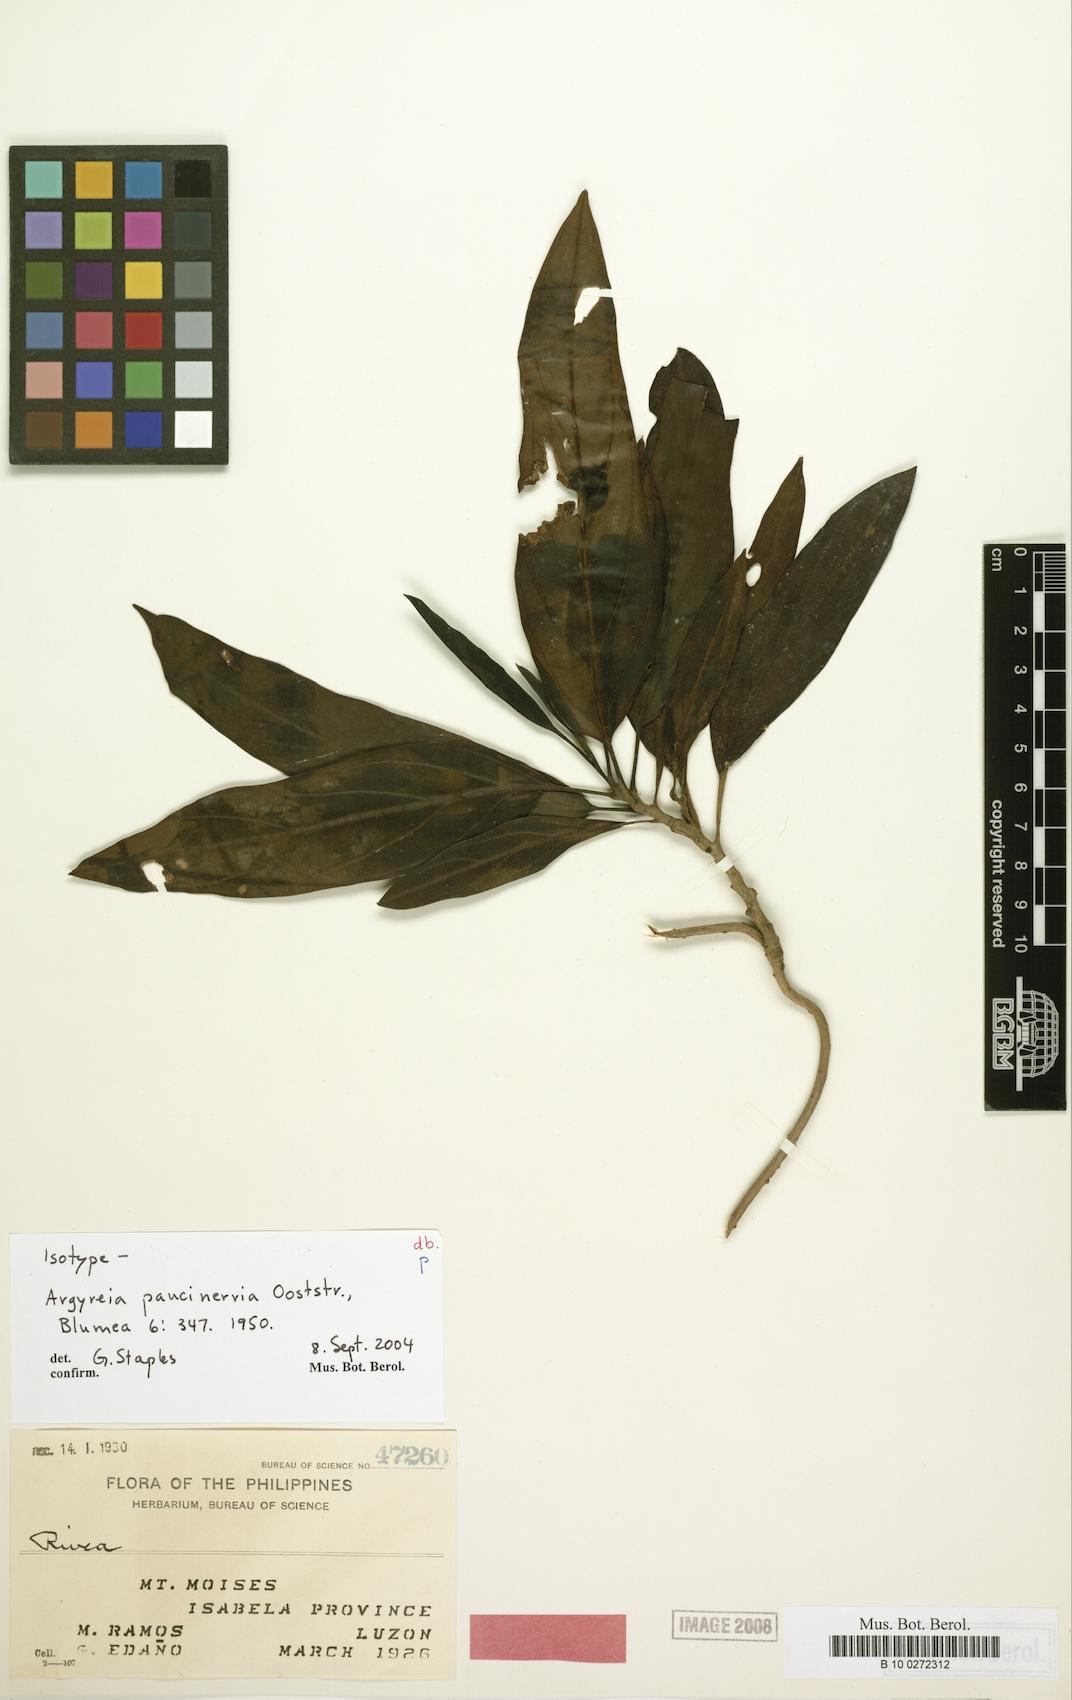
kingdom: Plantae
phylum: Tracheophyta
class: Magnoliopsida
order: Solanales
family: Convolvulaceae
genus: Argyreia
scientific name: Argyreia paucinervia
